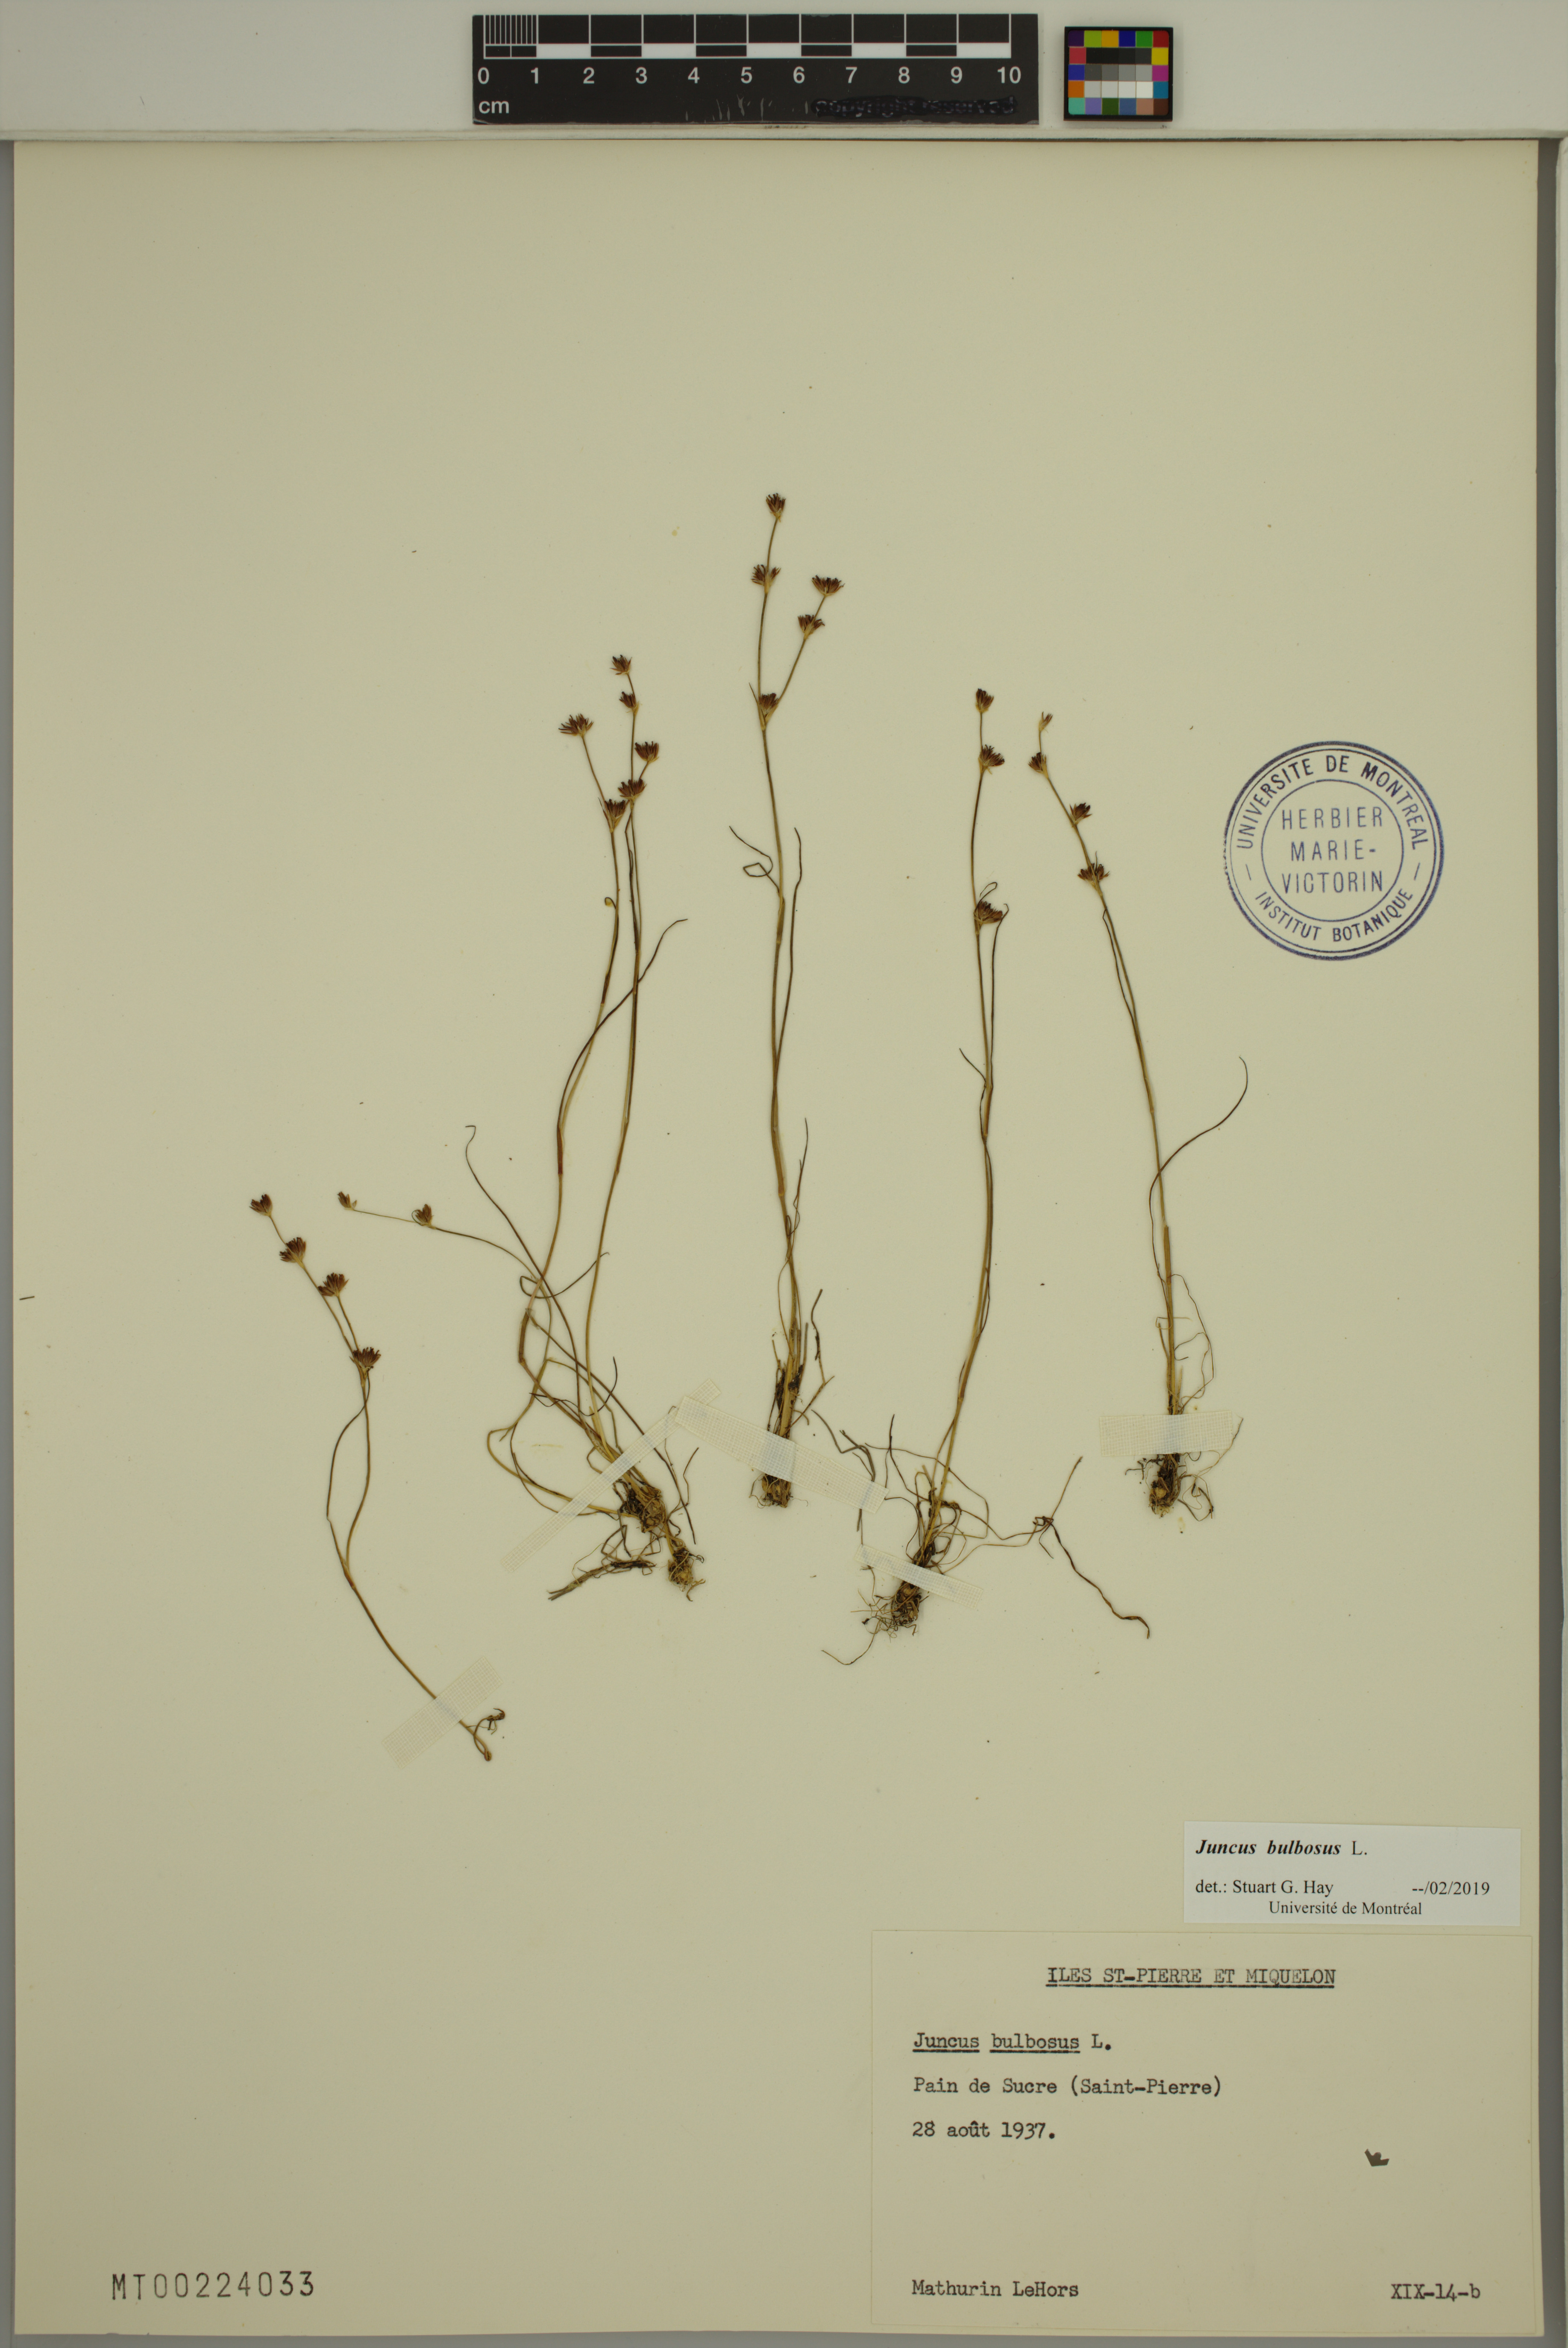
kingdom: Plantae
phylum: Tracheophyta
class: Liliopsida
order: Poales
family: Juncaceae
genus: Juncus
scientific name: Juncus bulbosus
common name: Bulbous rush
